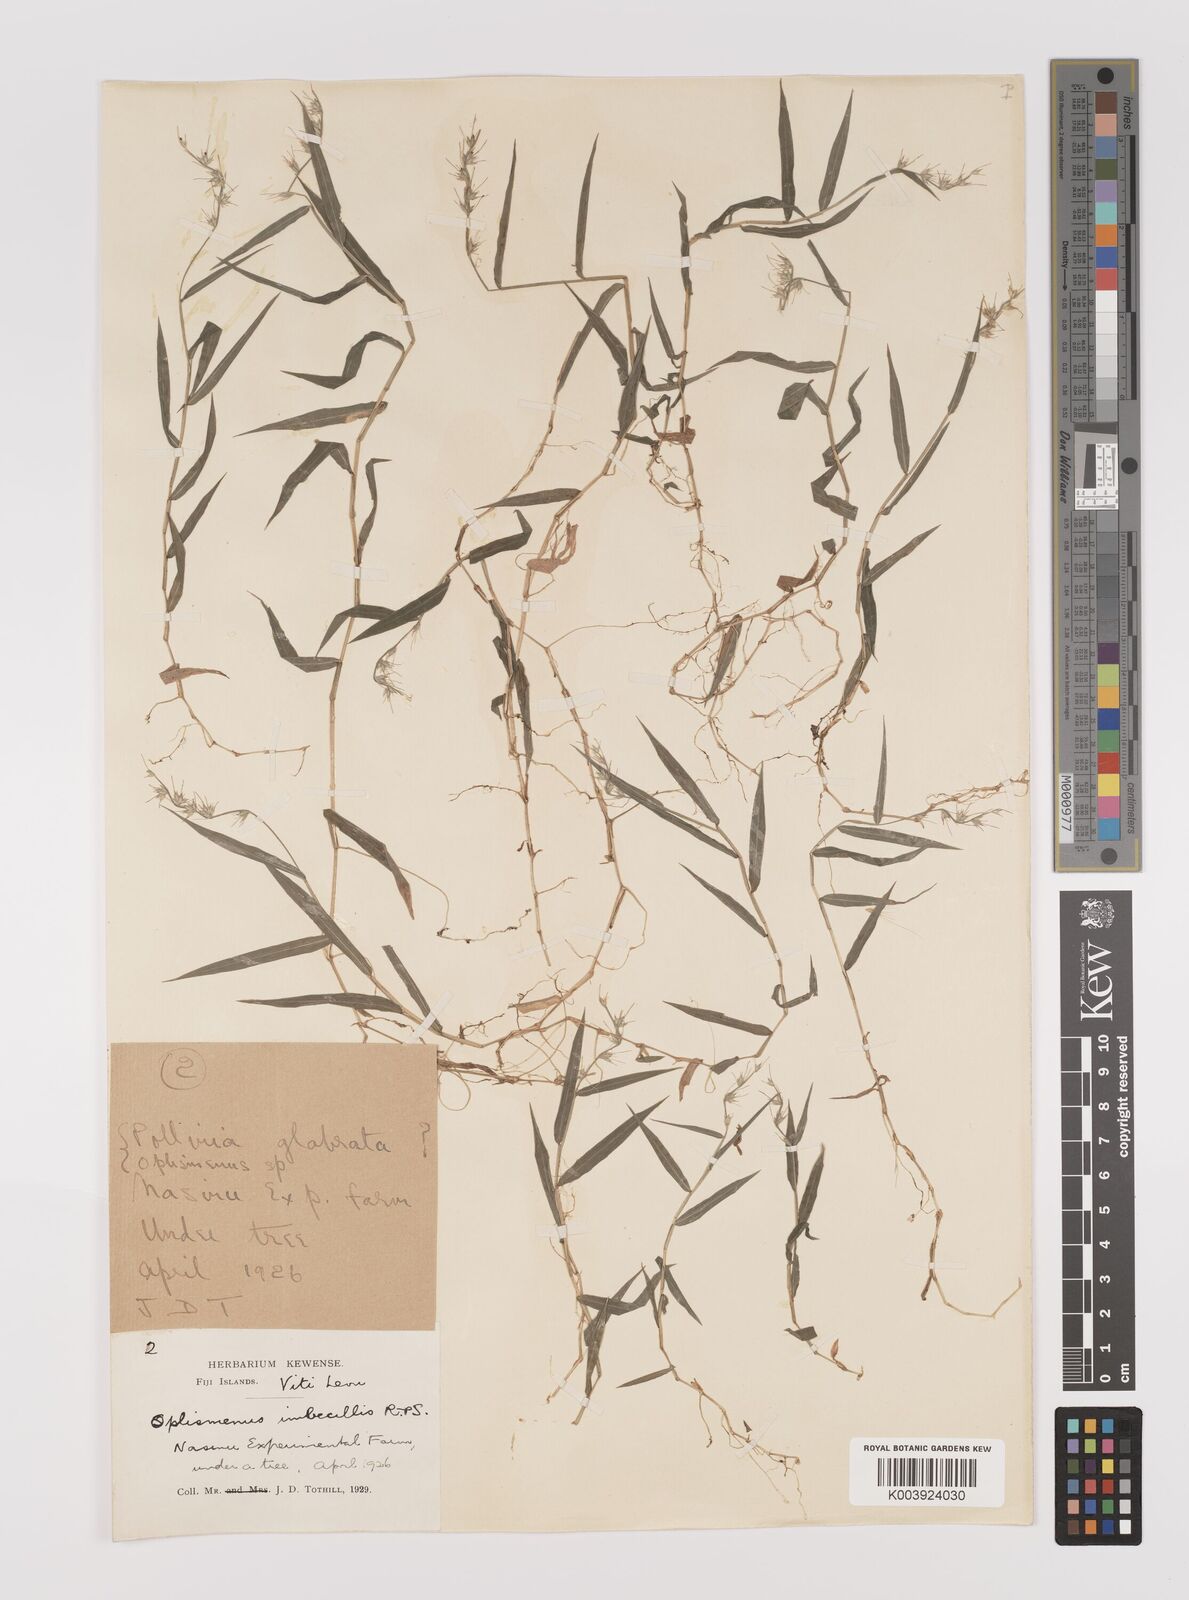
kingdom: Plantae
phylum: Tracheophyta
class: Liliopsida
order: Poales
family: Poaceae
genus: Oplismenus
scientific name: Oplismenus hirtellus
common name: Basketgrass
